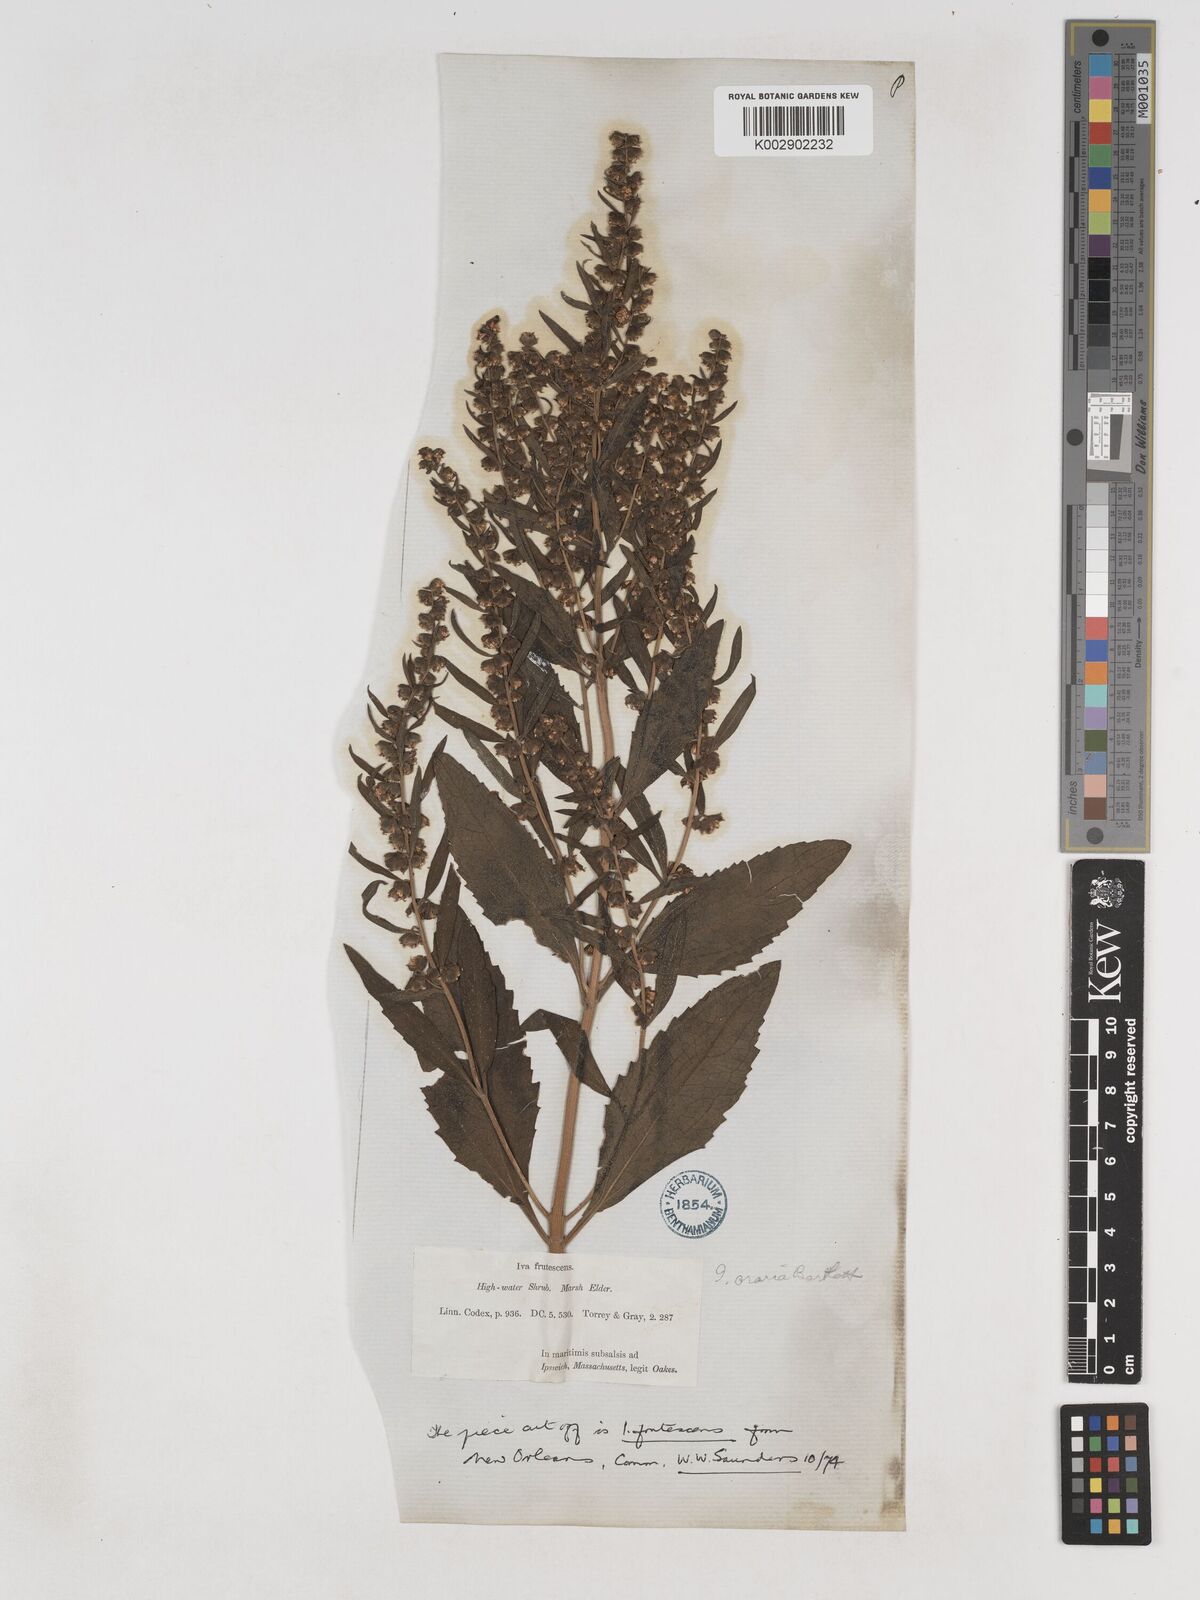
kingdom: Plantae
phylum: Tracheophyta
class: Magnoliopsida
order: Asterales
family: Asteraceae
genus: Iva
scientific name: Iva frutescens
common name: Big-leaved marsh-elder
